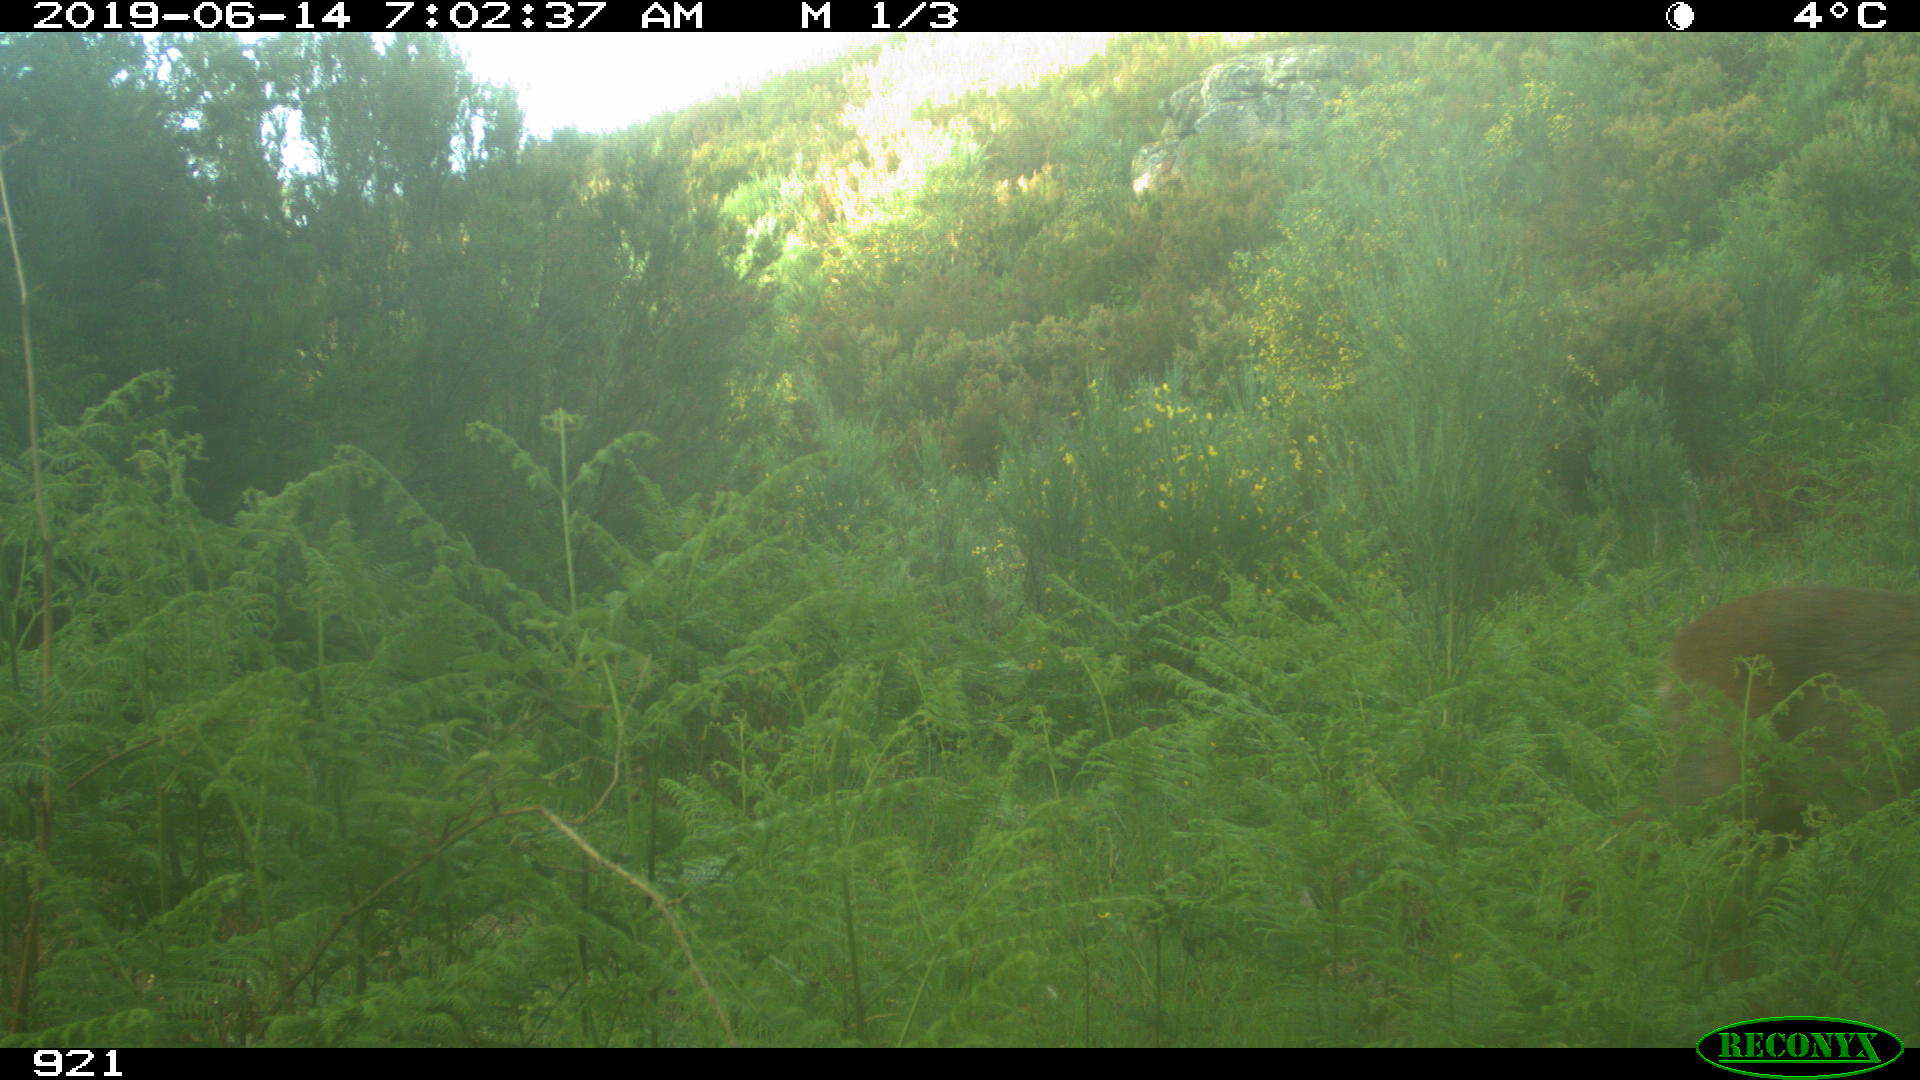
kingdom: Animalia
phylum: Chordata
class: Mammalia
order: Artiodactyla
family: Cervidae
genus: Capreolus
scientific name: Capreolus capreolus
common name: Western roe deer
